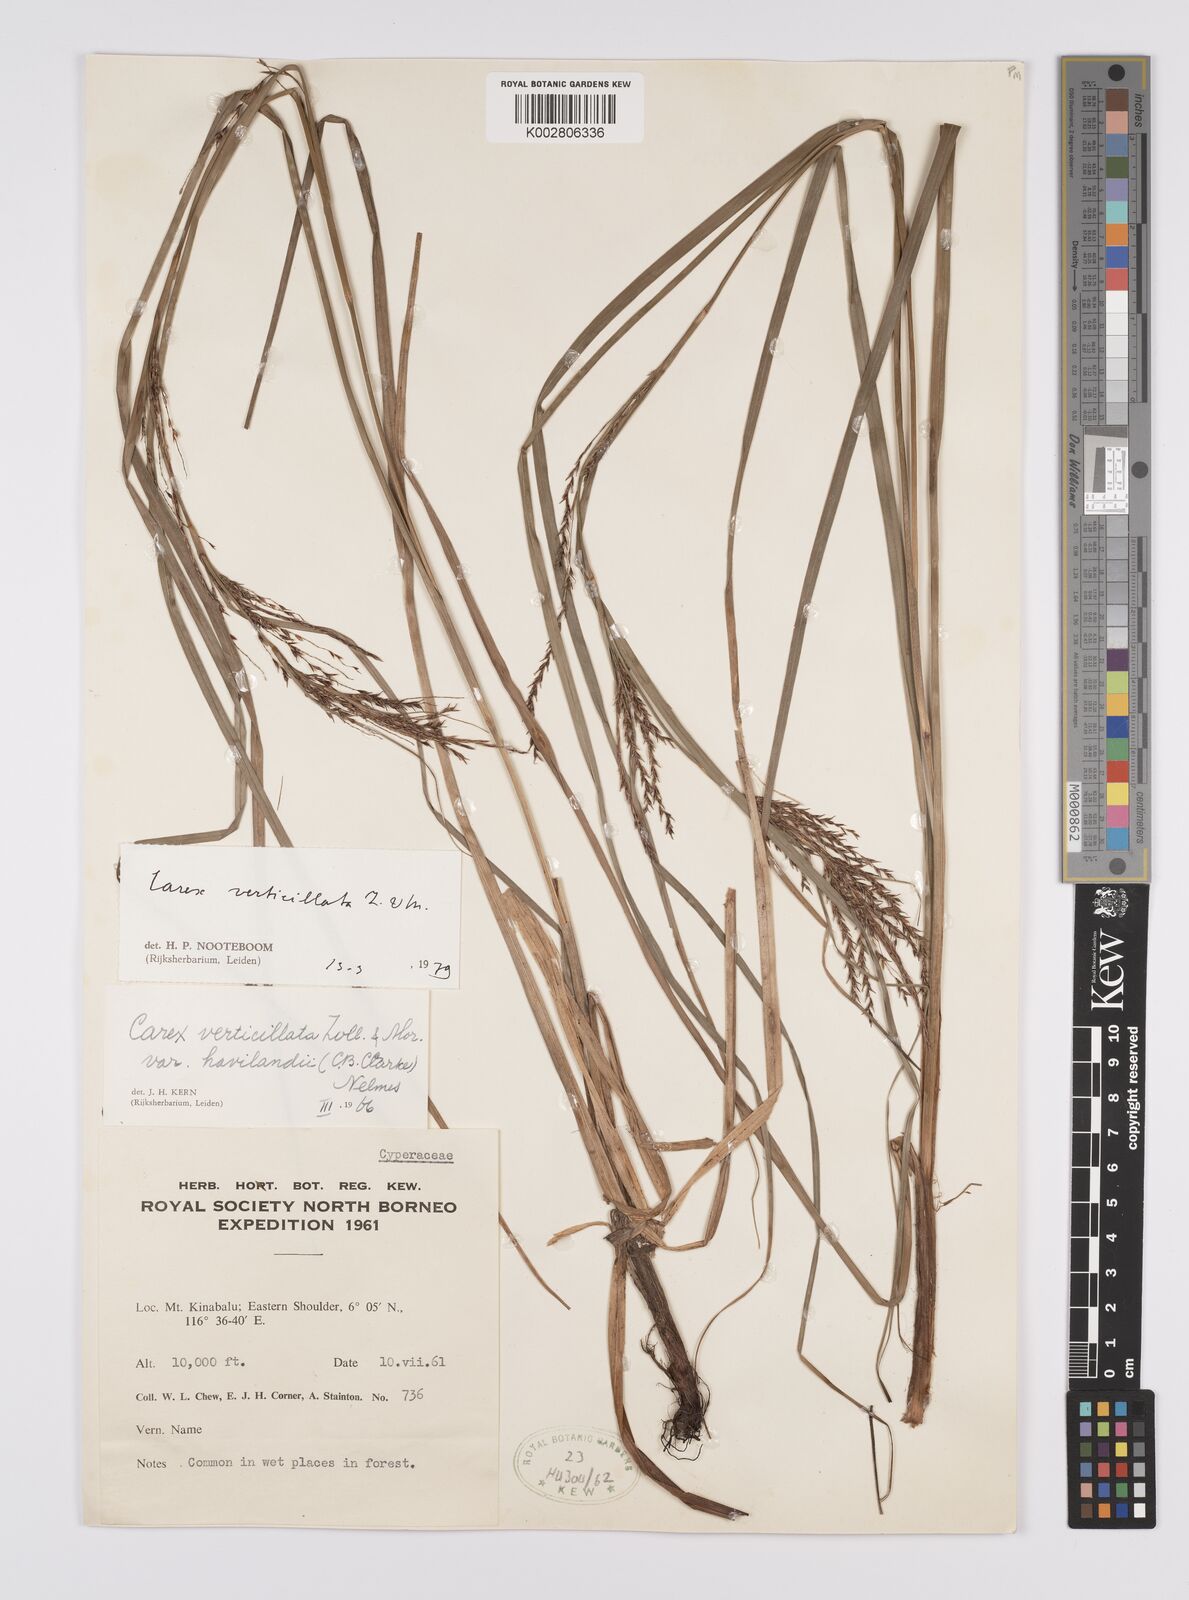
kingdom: Plantae
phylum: Tracheophyta
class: Liliopsida
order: Poales
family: Cyperaceae
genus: Carex
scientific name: Carex verticillata
